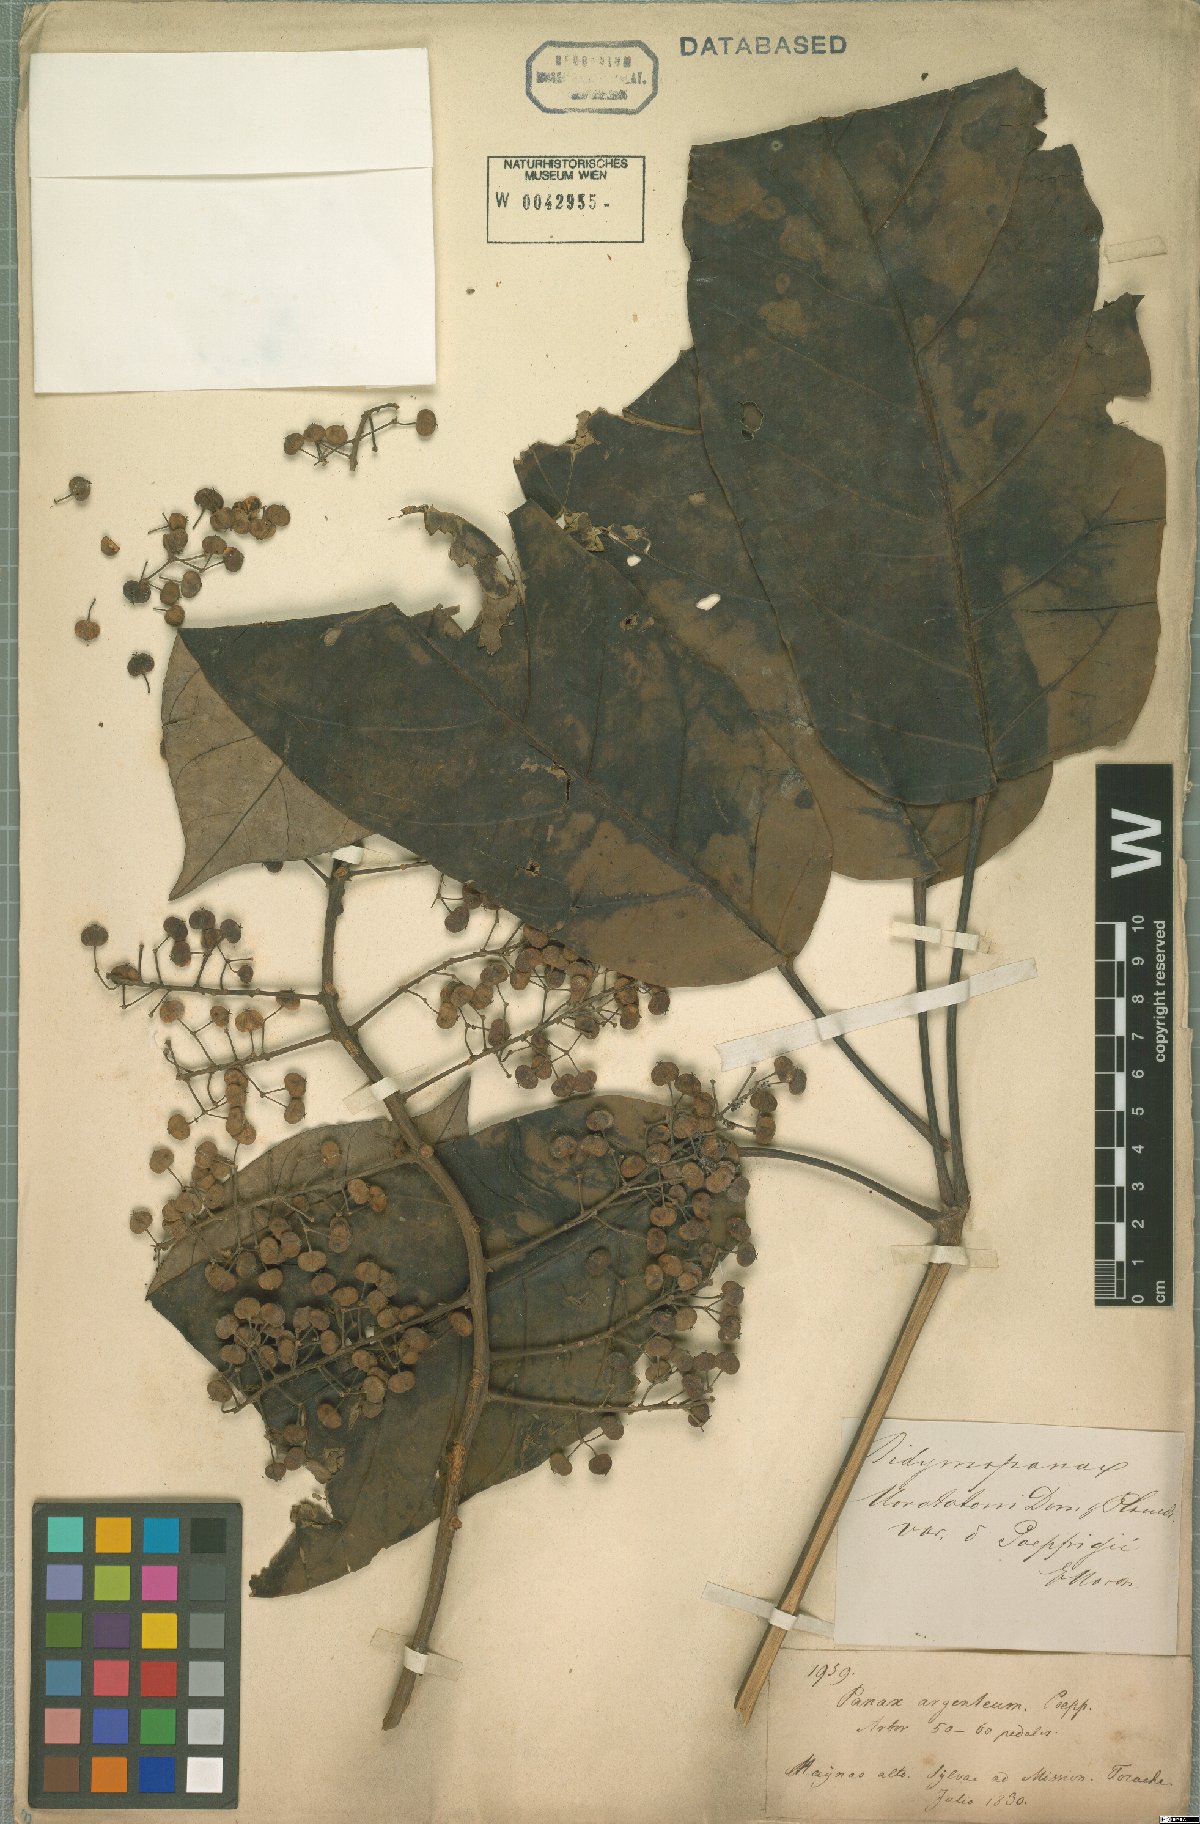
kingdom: Plantae
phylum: Tracheophyta
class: Magnoliopsida
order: Apiales
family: Araliaceae
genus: Didymopanax
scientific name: Didymopanax morototoni
